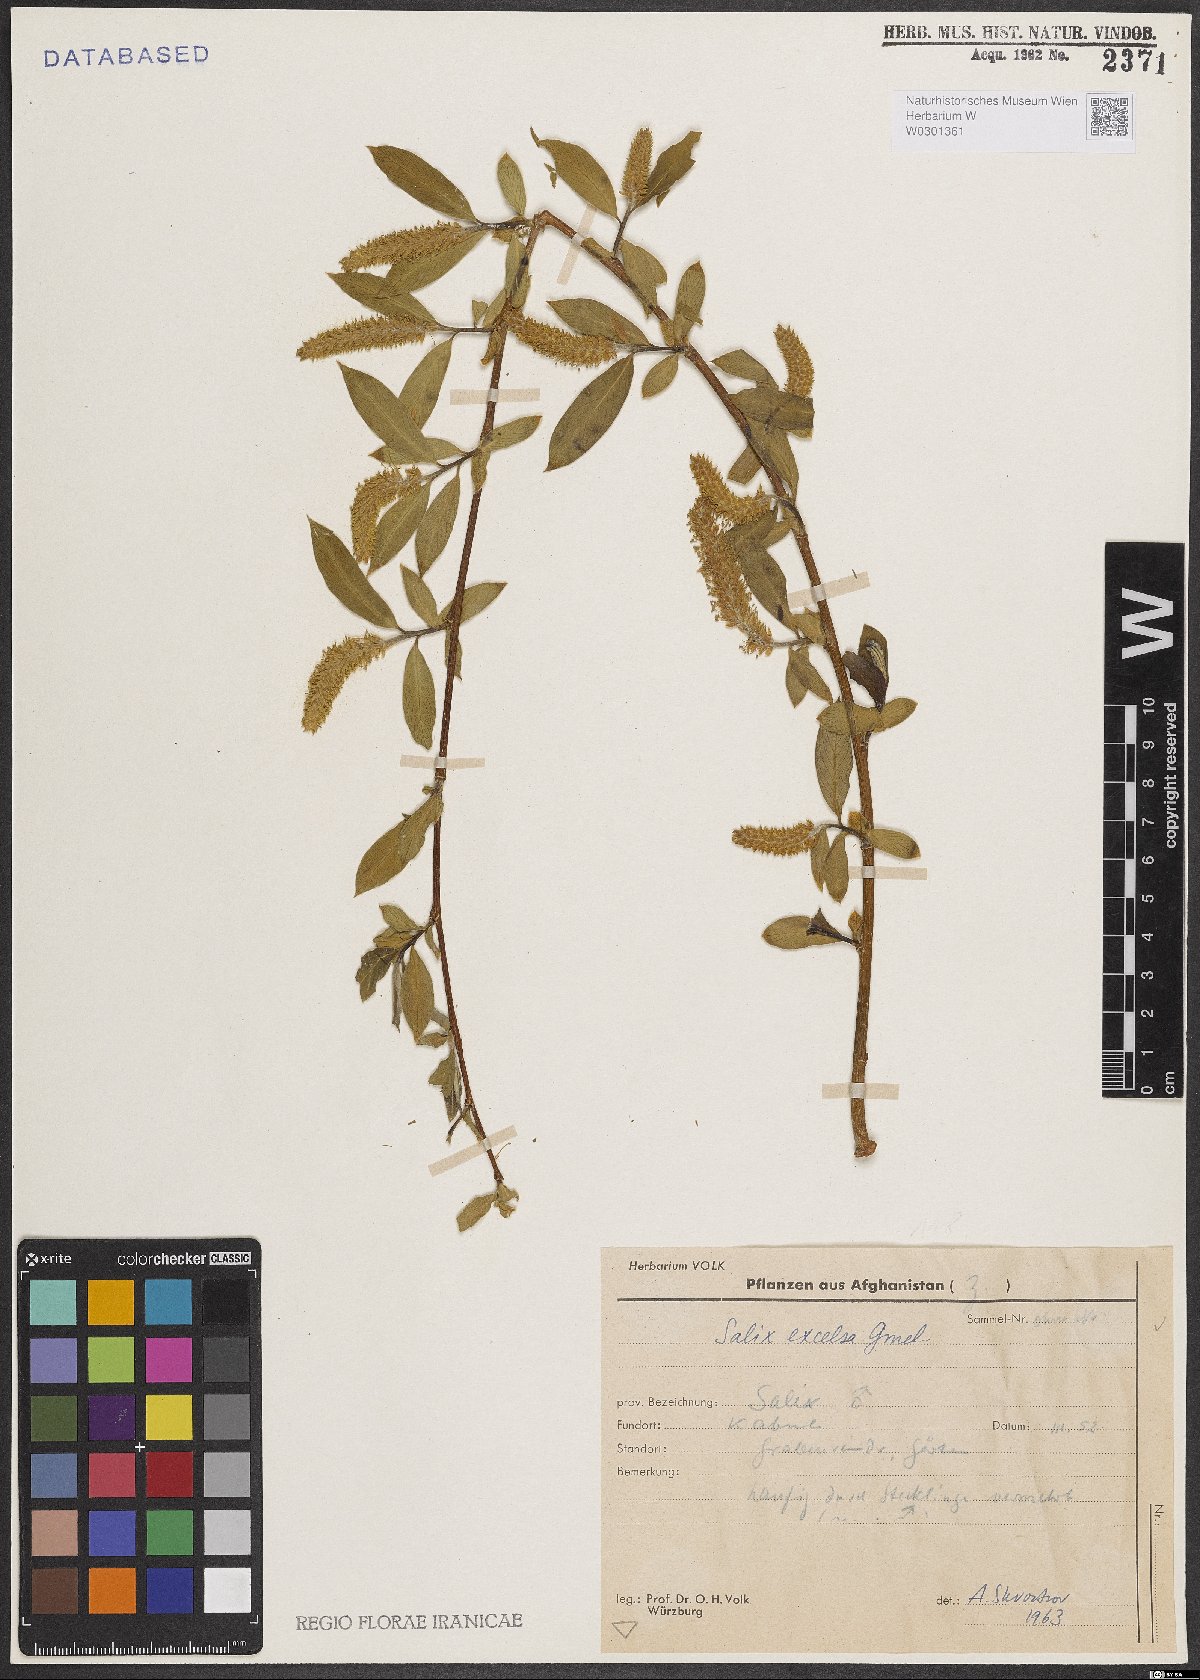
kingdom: Plantae
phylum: Tracheophyta
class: Magnoliopsida
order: Malpighiales
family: Salicaceae
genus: Salix
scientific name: Salix excelsa
